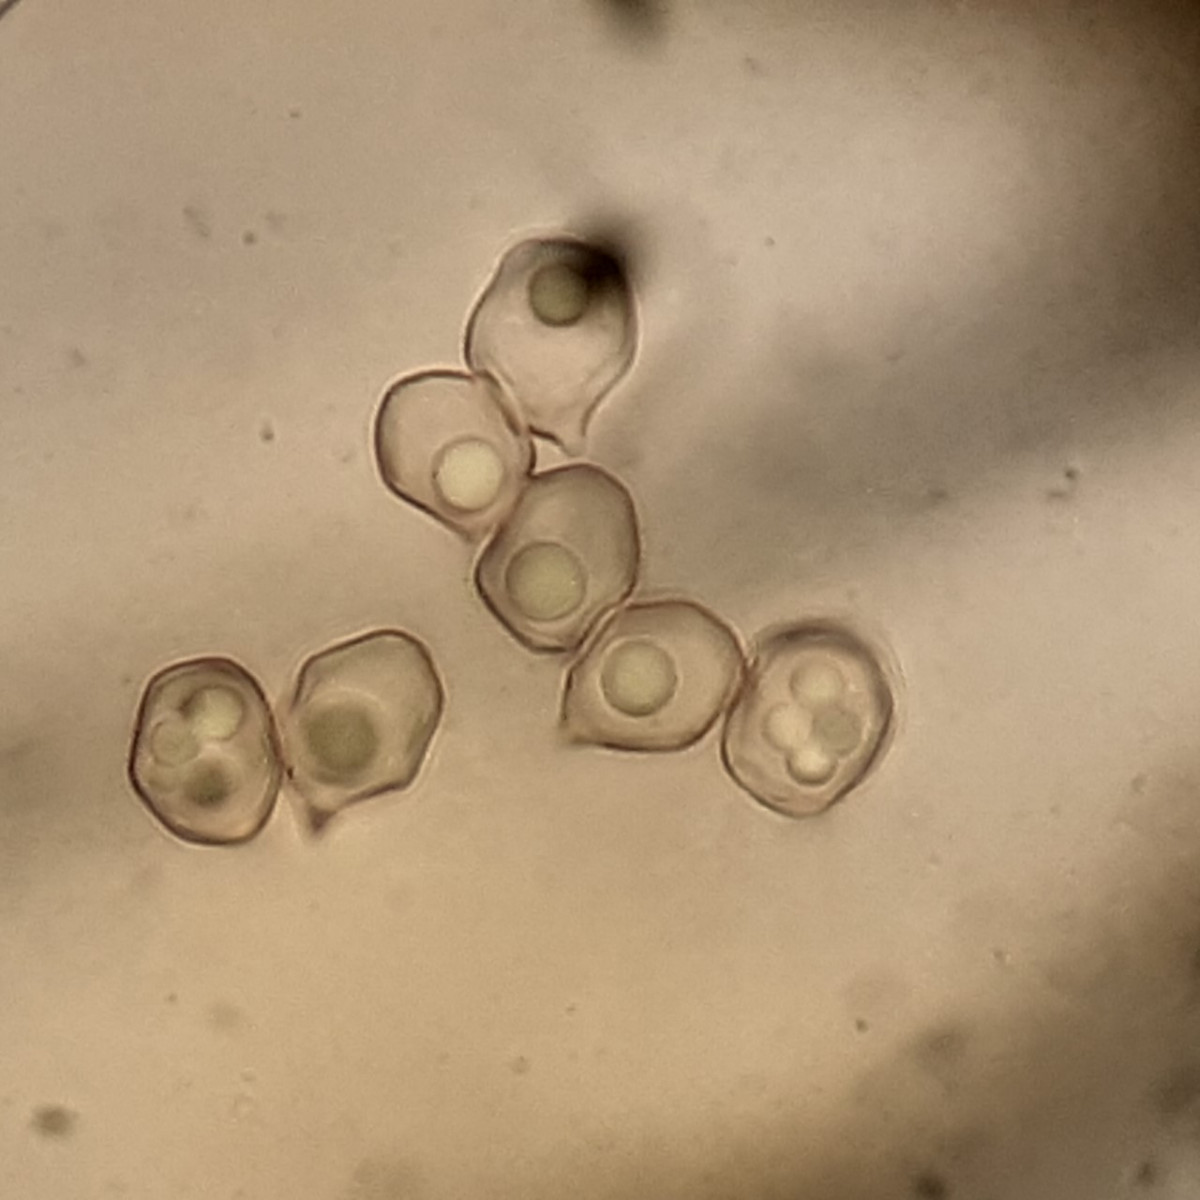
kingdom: Fungi
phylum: Basidiomycota
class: Agaricomycetes
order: Agaricales
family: Entolomataceae
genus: Entoloma
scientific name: Entoloma
